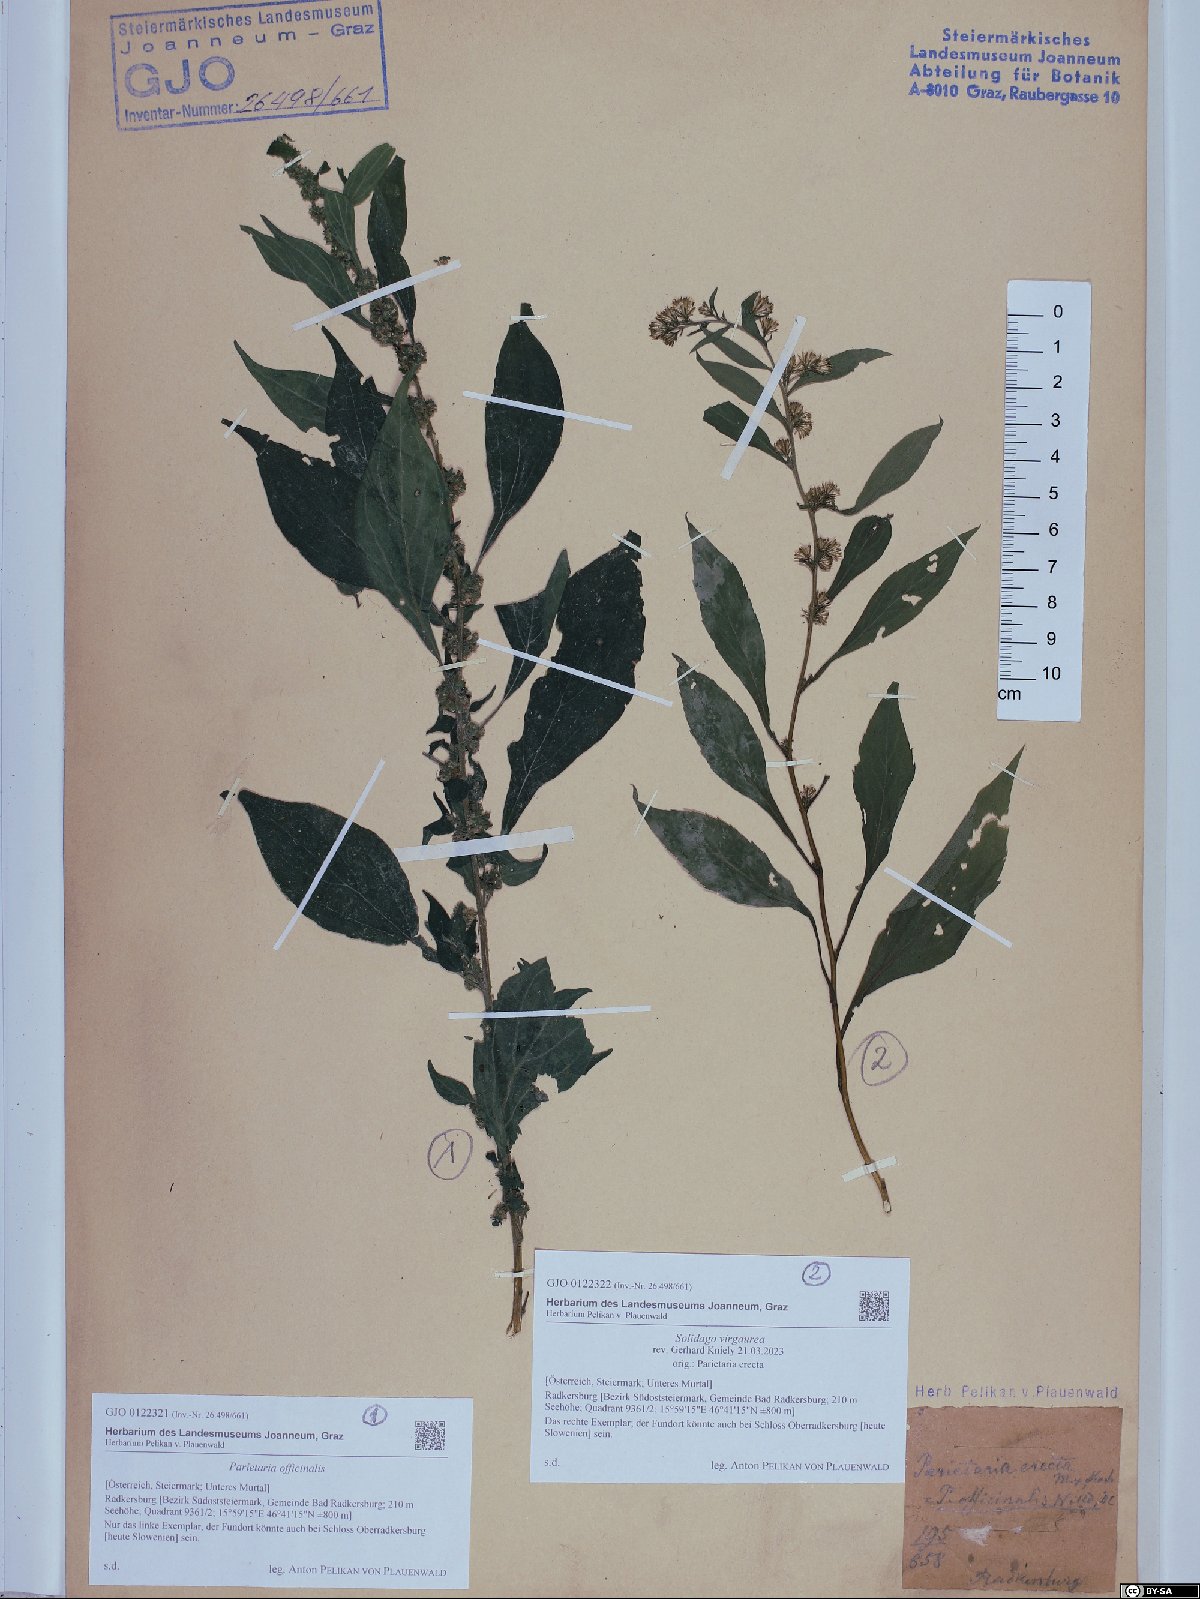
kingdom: Plantae
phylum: Tracheophyta
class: Magnoliopsida
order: Rosales
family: Urticaceae
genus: Parietaria
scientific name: Parietaria officinalis
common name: Eastern pellitory-of-the-wall
